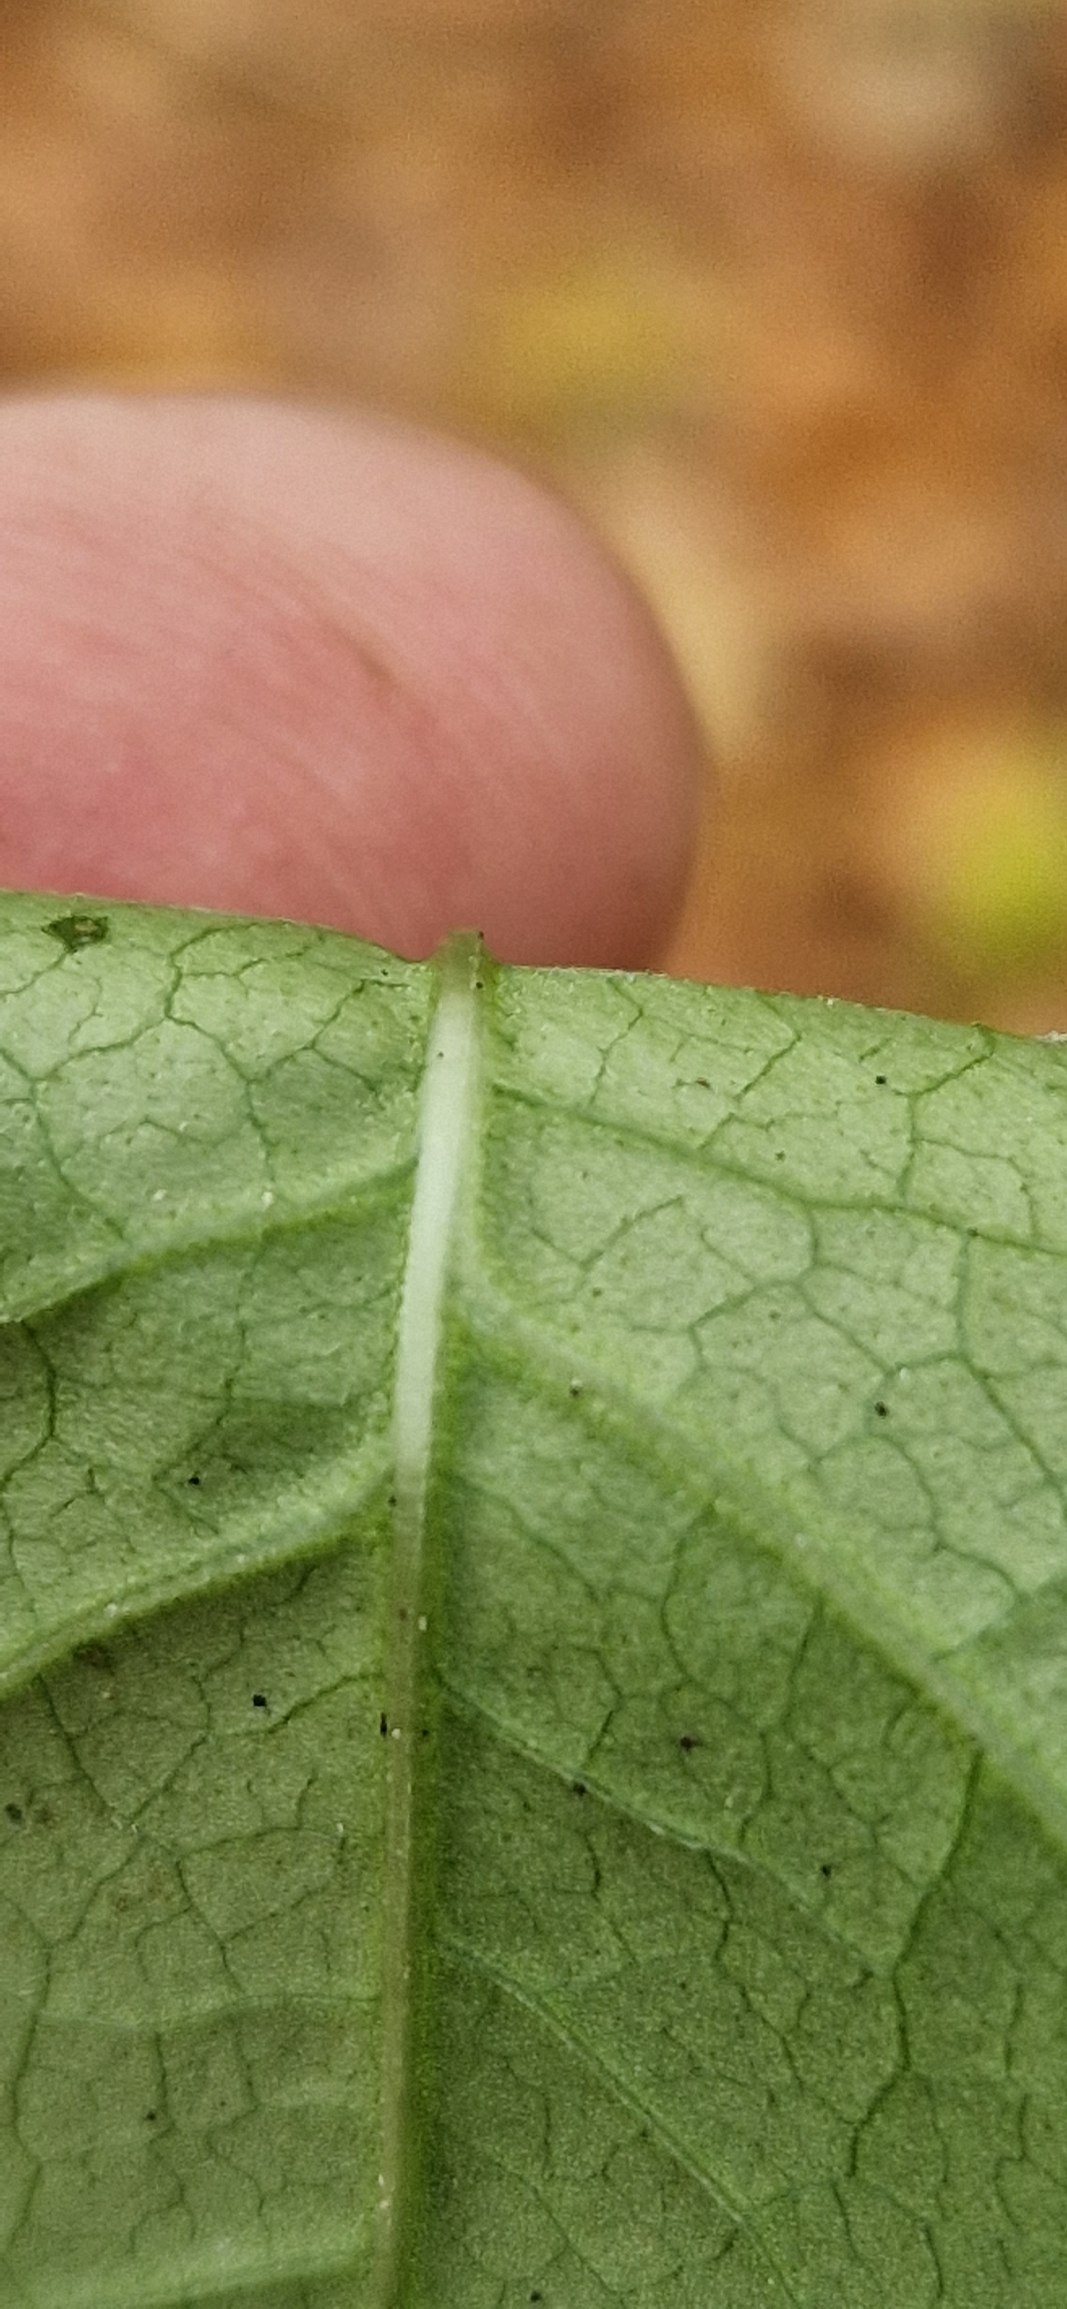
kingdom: Plantae
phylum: Tracheophyta
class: Magnoliopsida
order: Caryophyllales
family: Polygonaceae
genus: Reynoutria
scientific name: Reynoutria japonica
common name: Japan-pileurt
